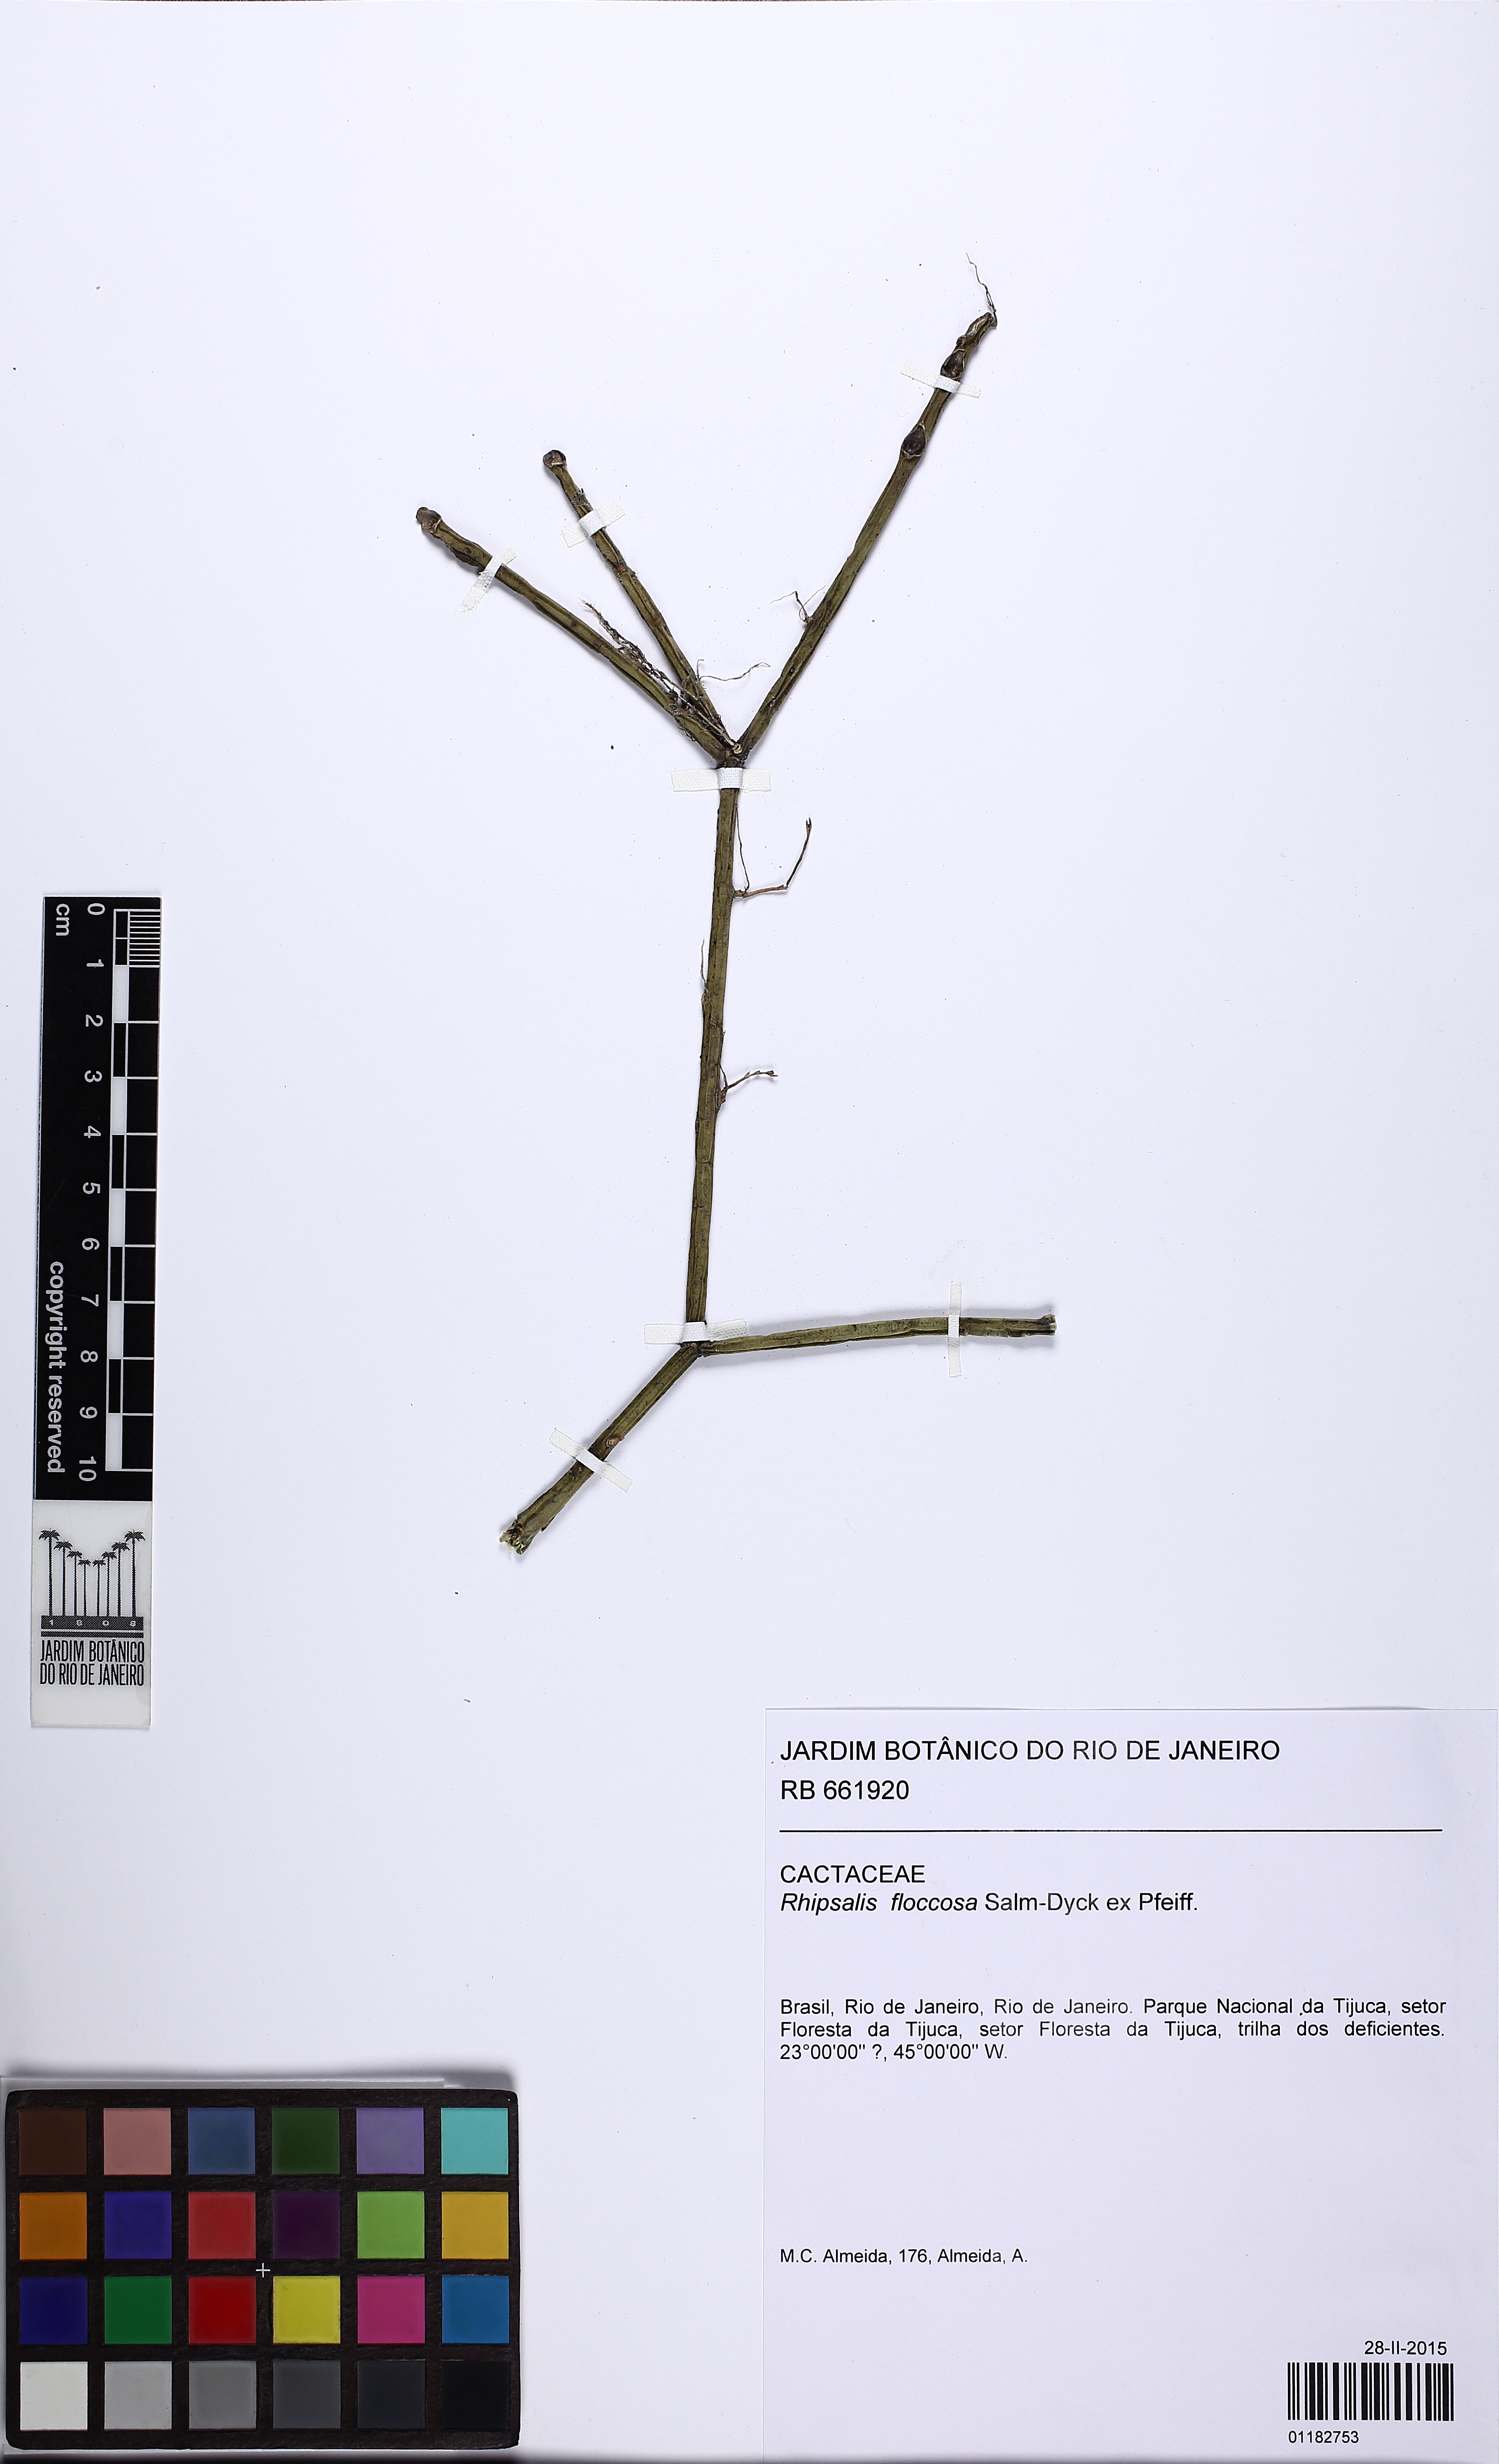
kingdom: Plantae
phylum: Tracheophyta
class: Magnoliopsida
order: Caryophyllales
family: Cactaceae
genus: Rhipsalis
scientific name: Rhipsalis floccosa
